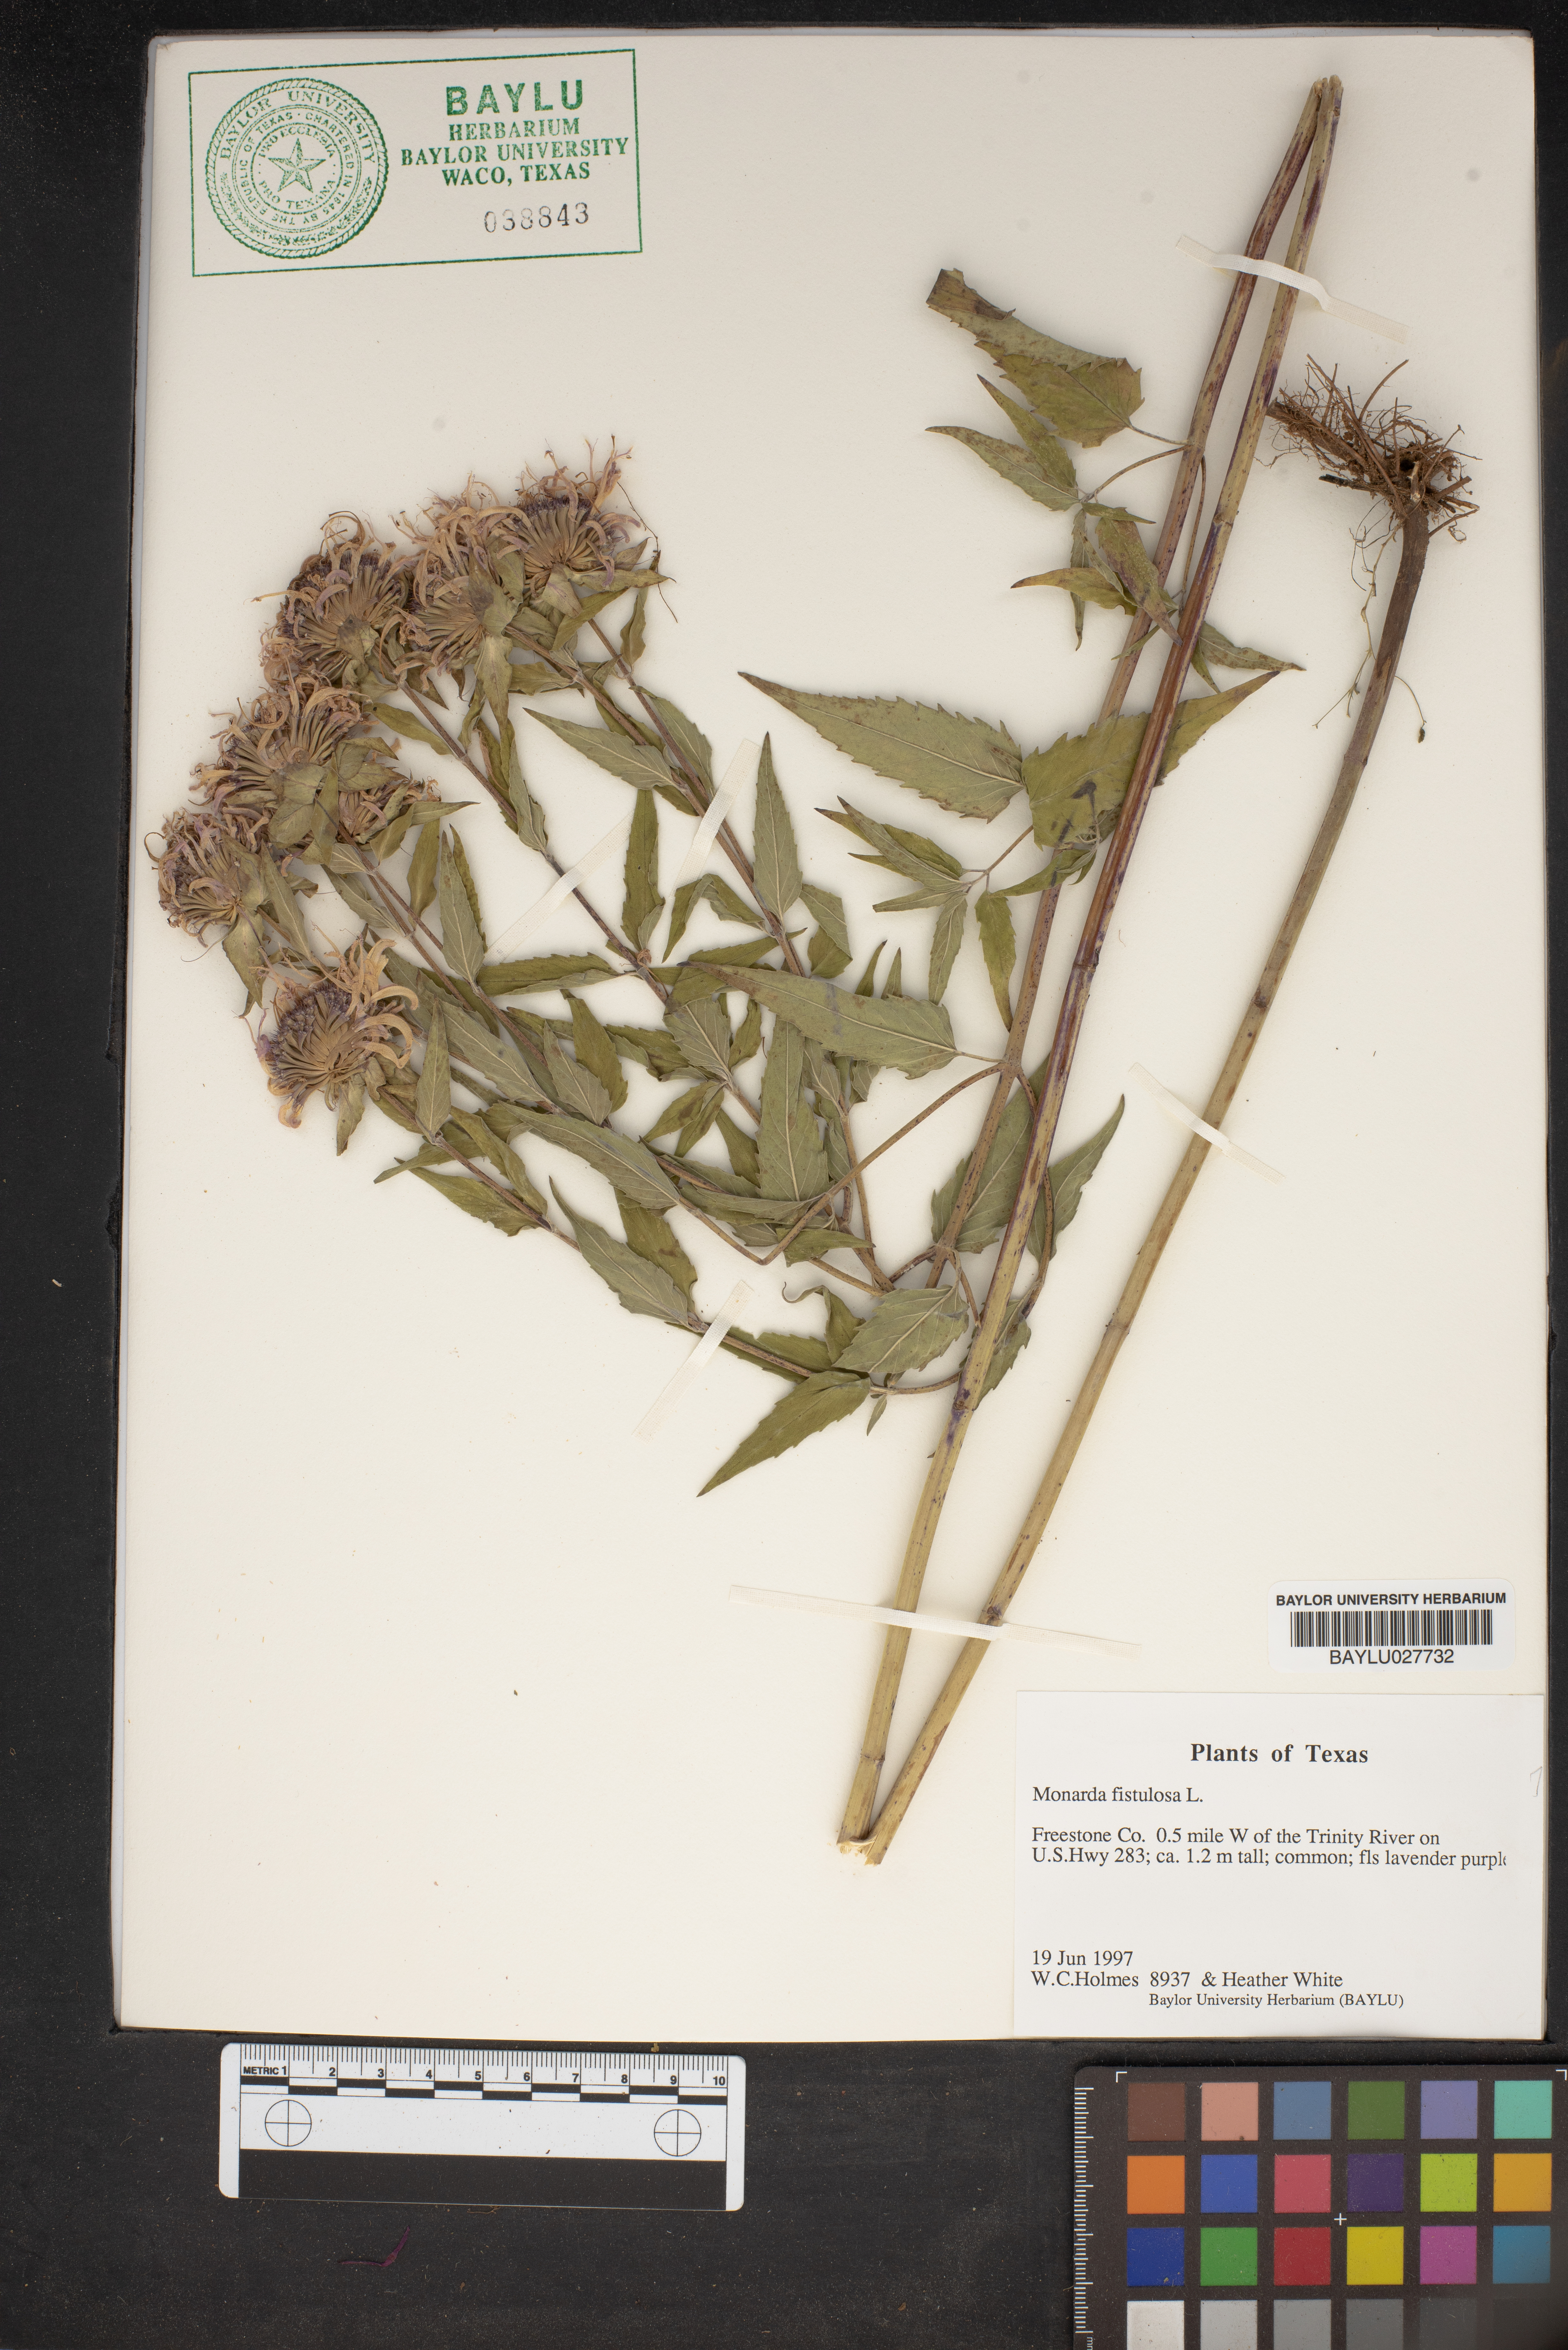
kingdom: Plantae
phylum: Tracheophyta
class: Magnoliopsida
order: Lamiales
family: Lamiaceae
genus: Monarda
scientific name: Monarda fistulosa
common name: Purple beebalm
